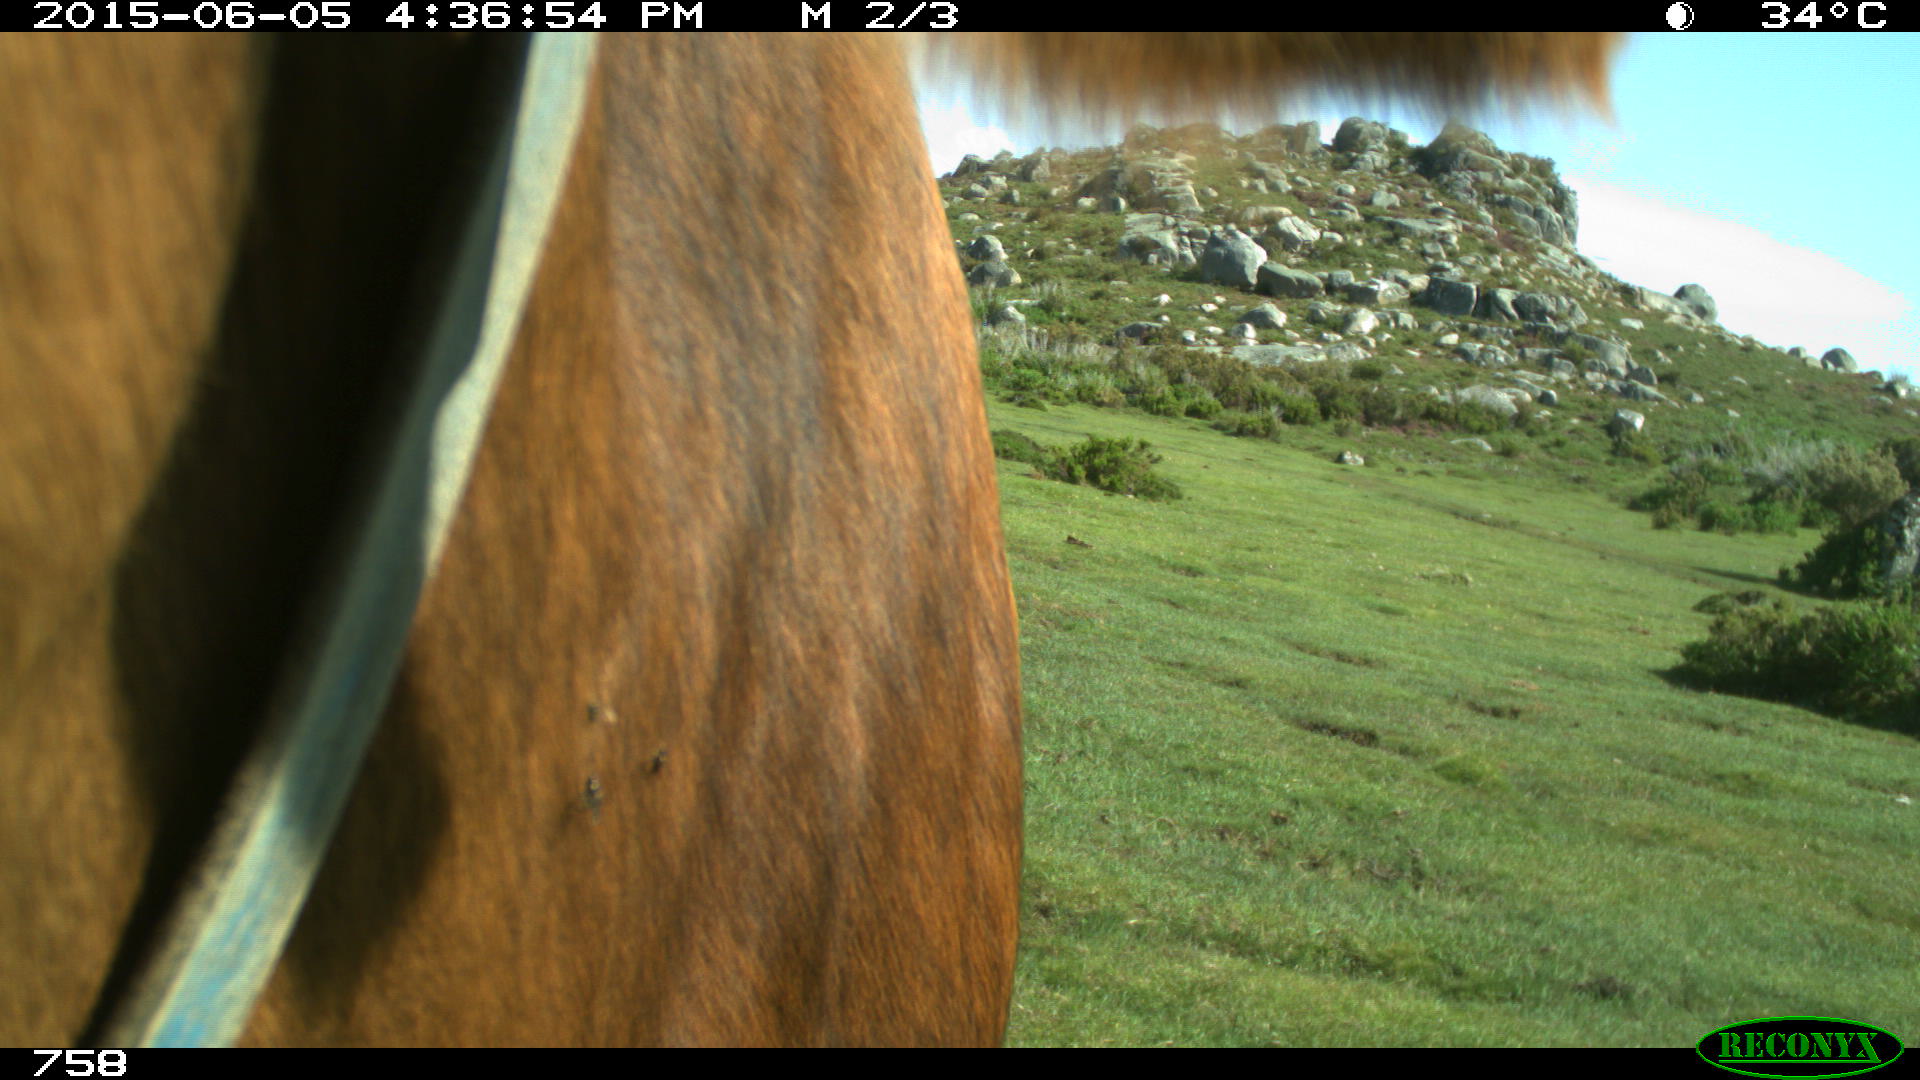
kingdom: Animalia
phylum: Chordata
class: Mammalia
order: Perissodactyla
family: Equidae
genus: Equus
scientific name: Equus caballus
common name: Horse
